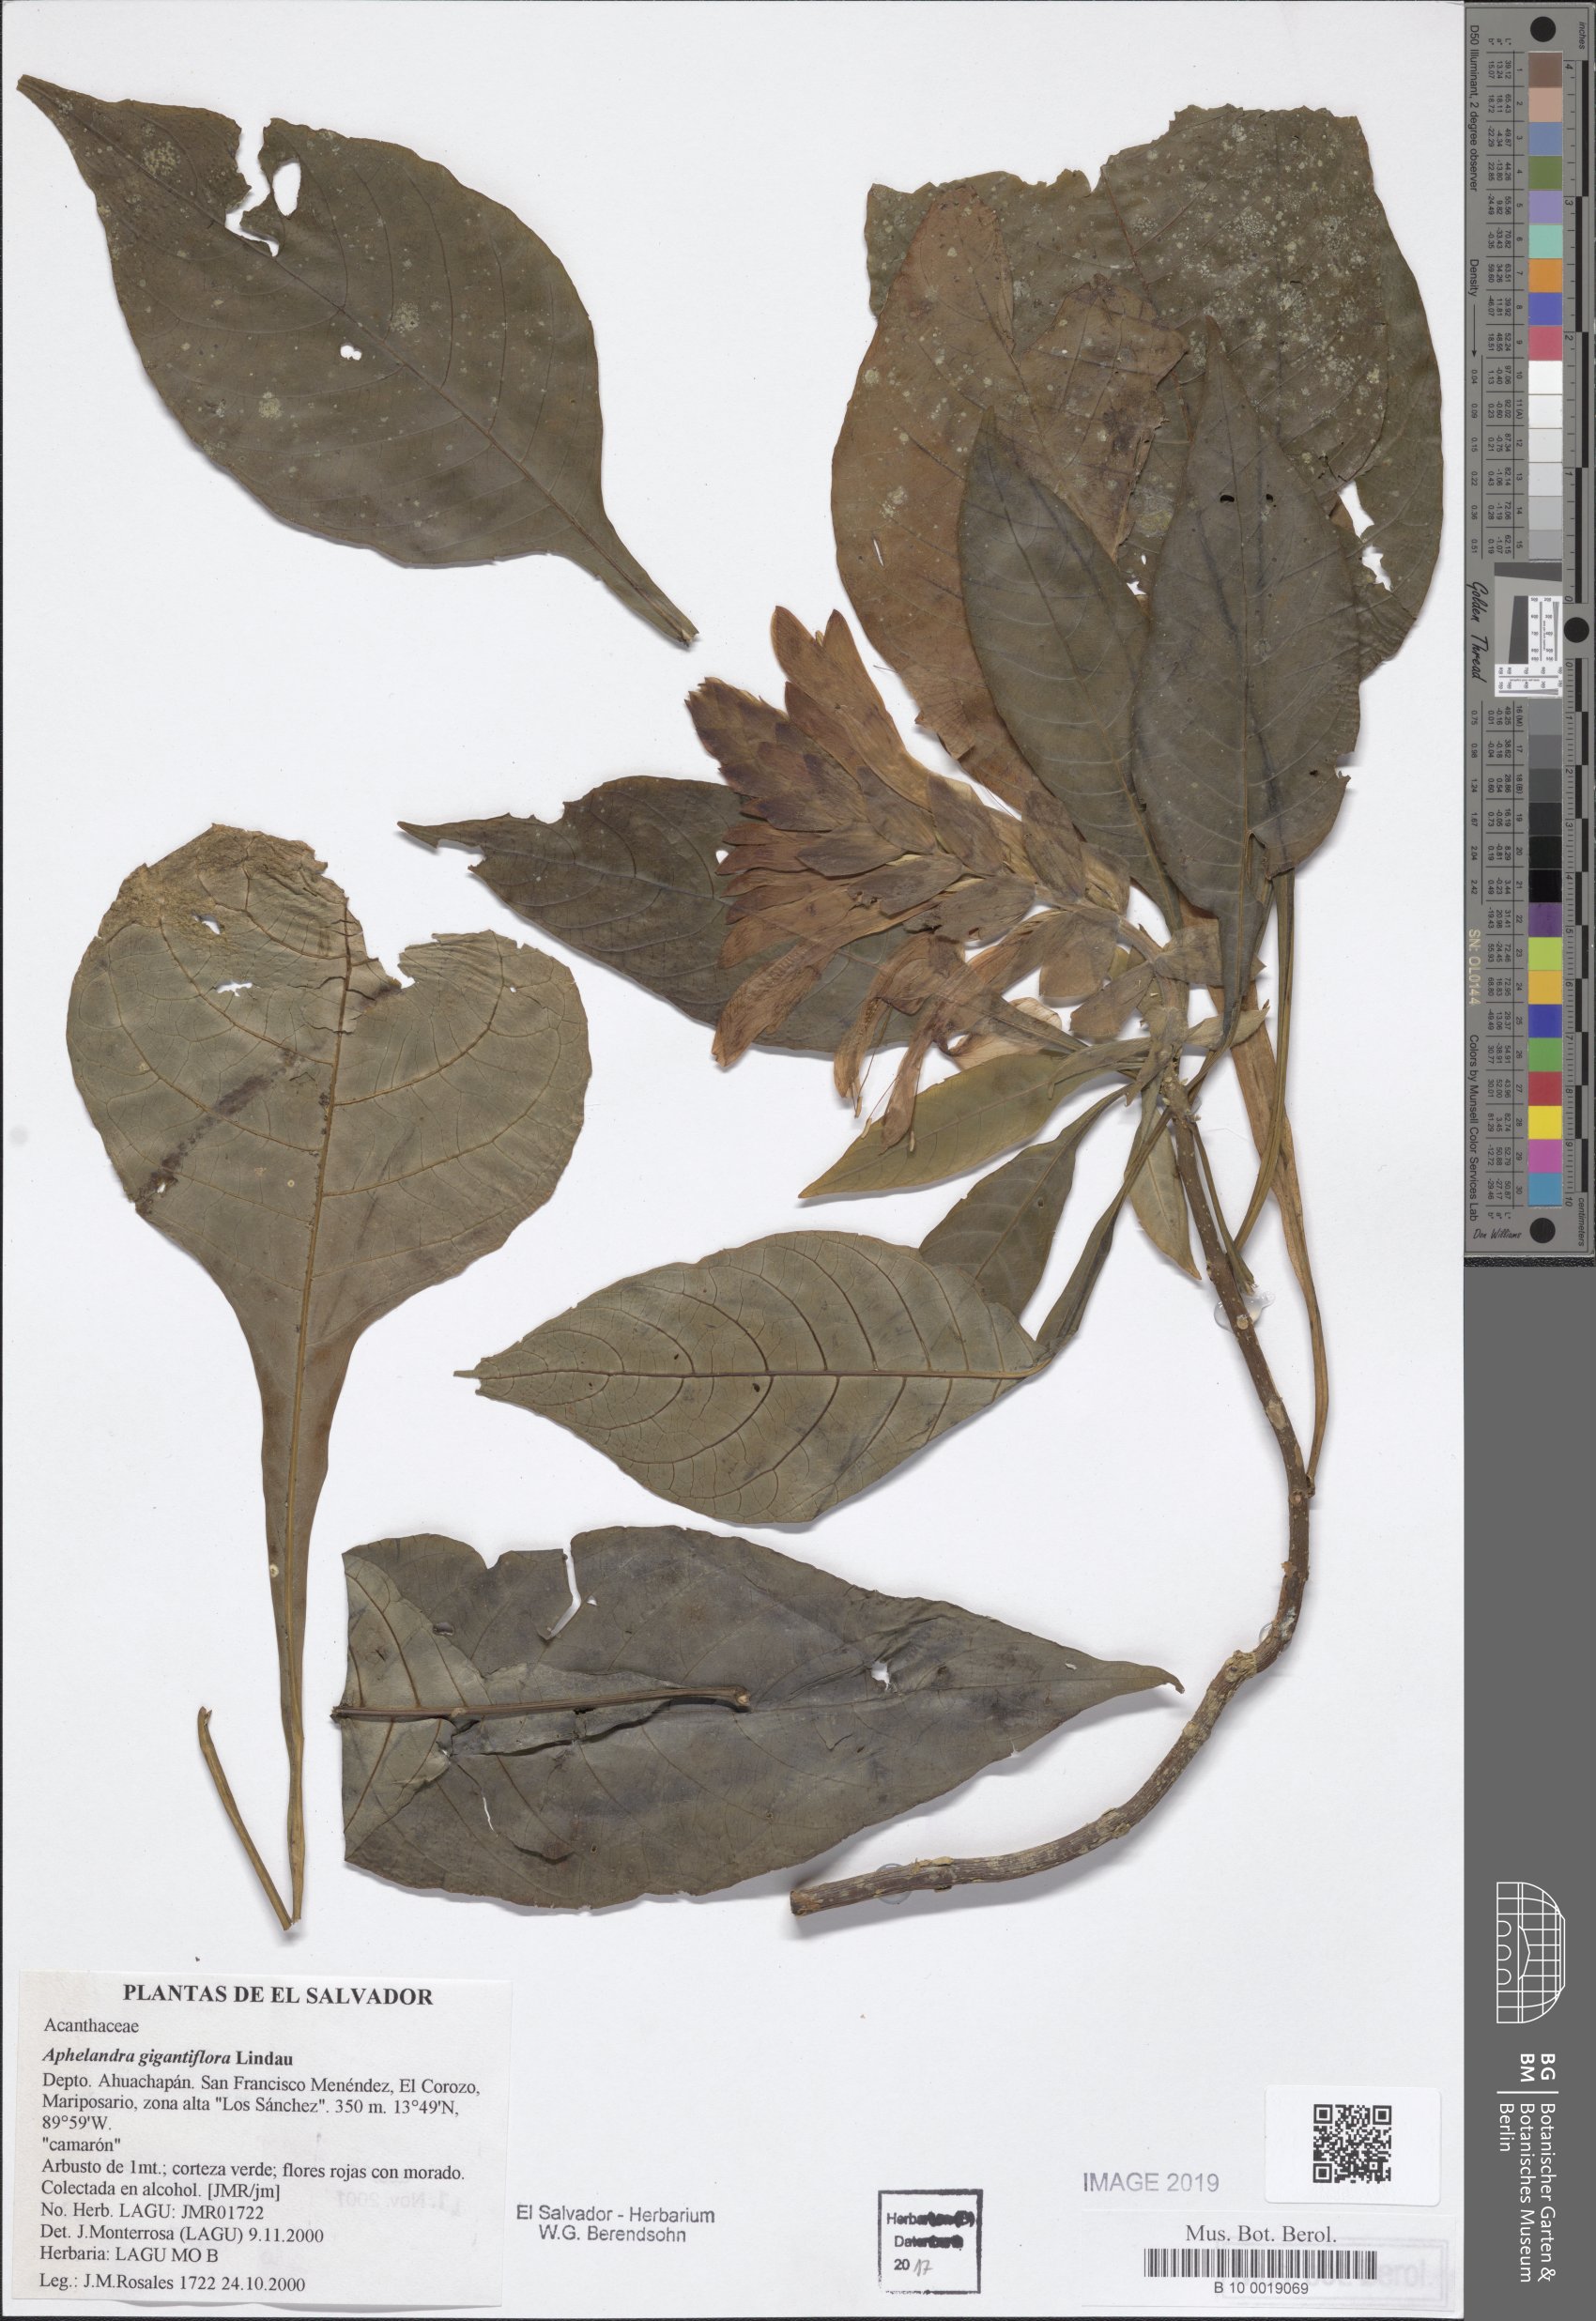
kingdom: Plantae
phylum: Tracheophyta
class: Magnoliopsida
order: Lamiales
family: Acanthaceae
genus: Aphelandra
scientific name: Aphelandra gigantiflora
